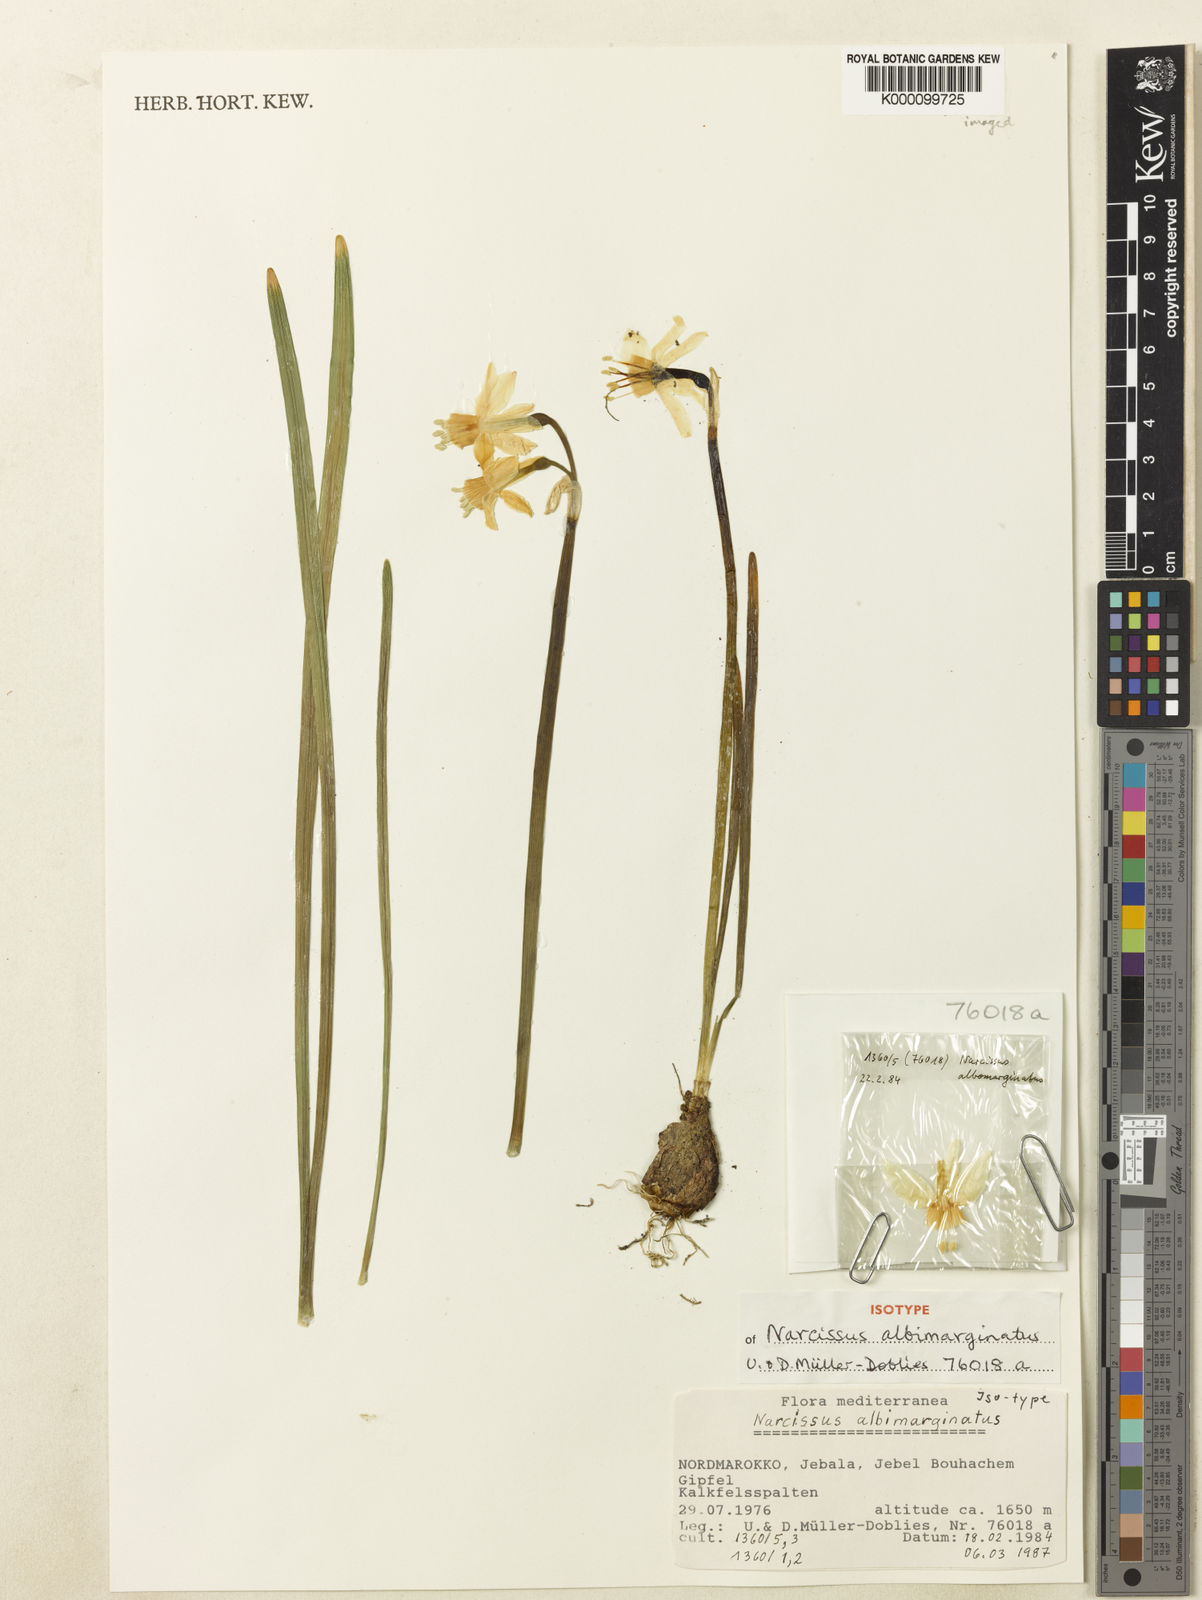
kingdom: Plantae
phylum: Tracheophyta
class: Liliopsida
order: Asparagales
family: Amaryllidaceae
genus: Narcissus
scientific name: Narcissus
